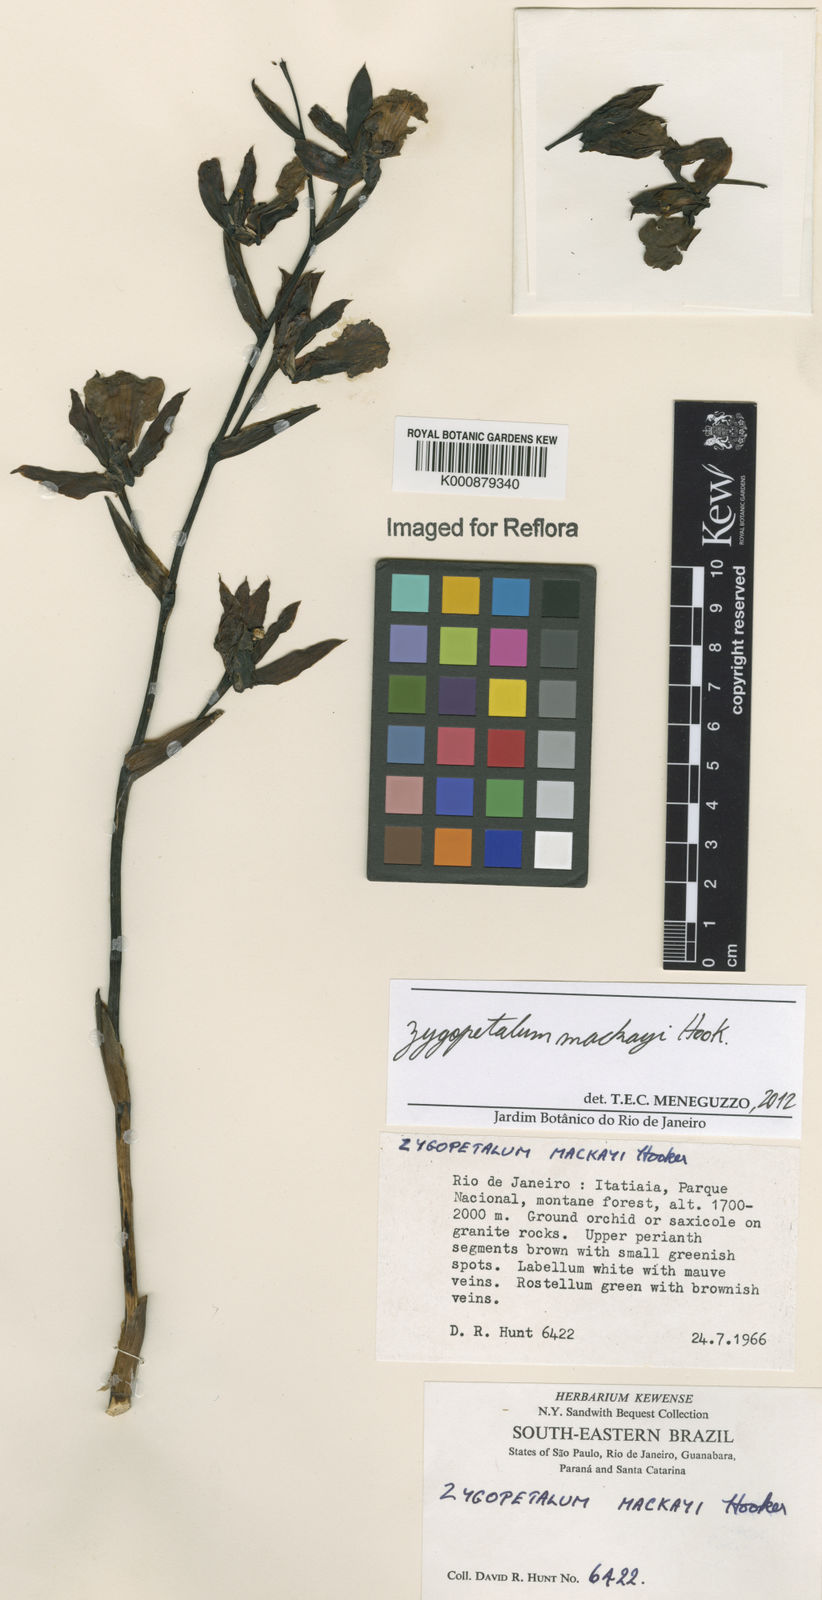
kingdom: Plantae
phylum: Tracheophyta
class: Liliopsida
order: Asparagales
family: Orchidaceae
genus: Zygopetalum
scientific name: Zygopetalum maculatum
